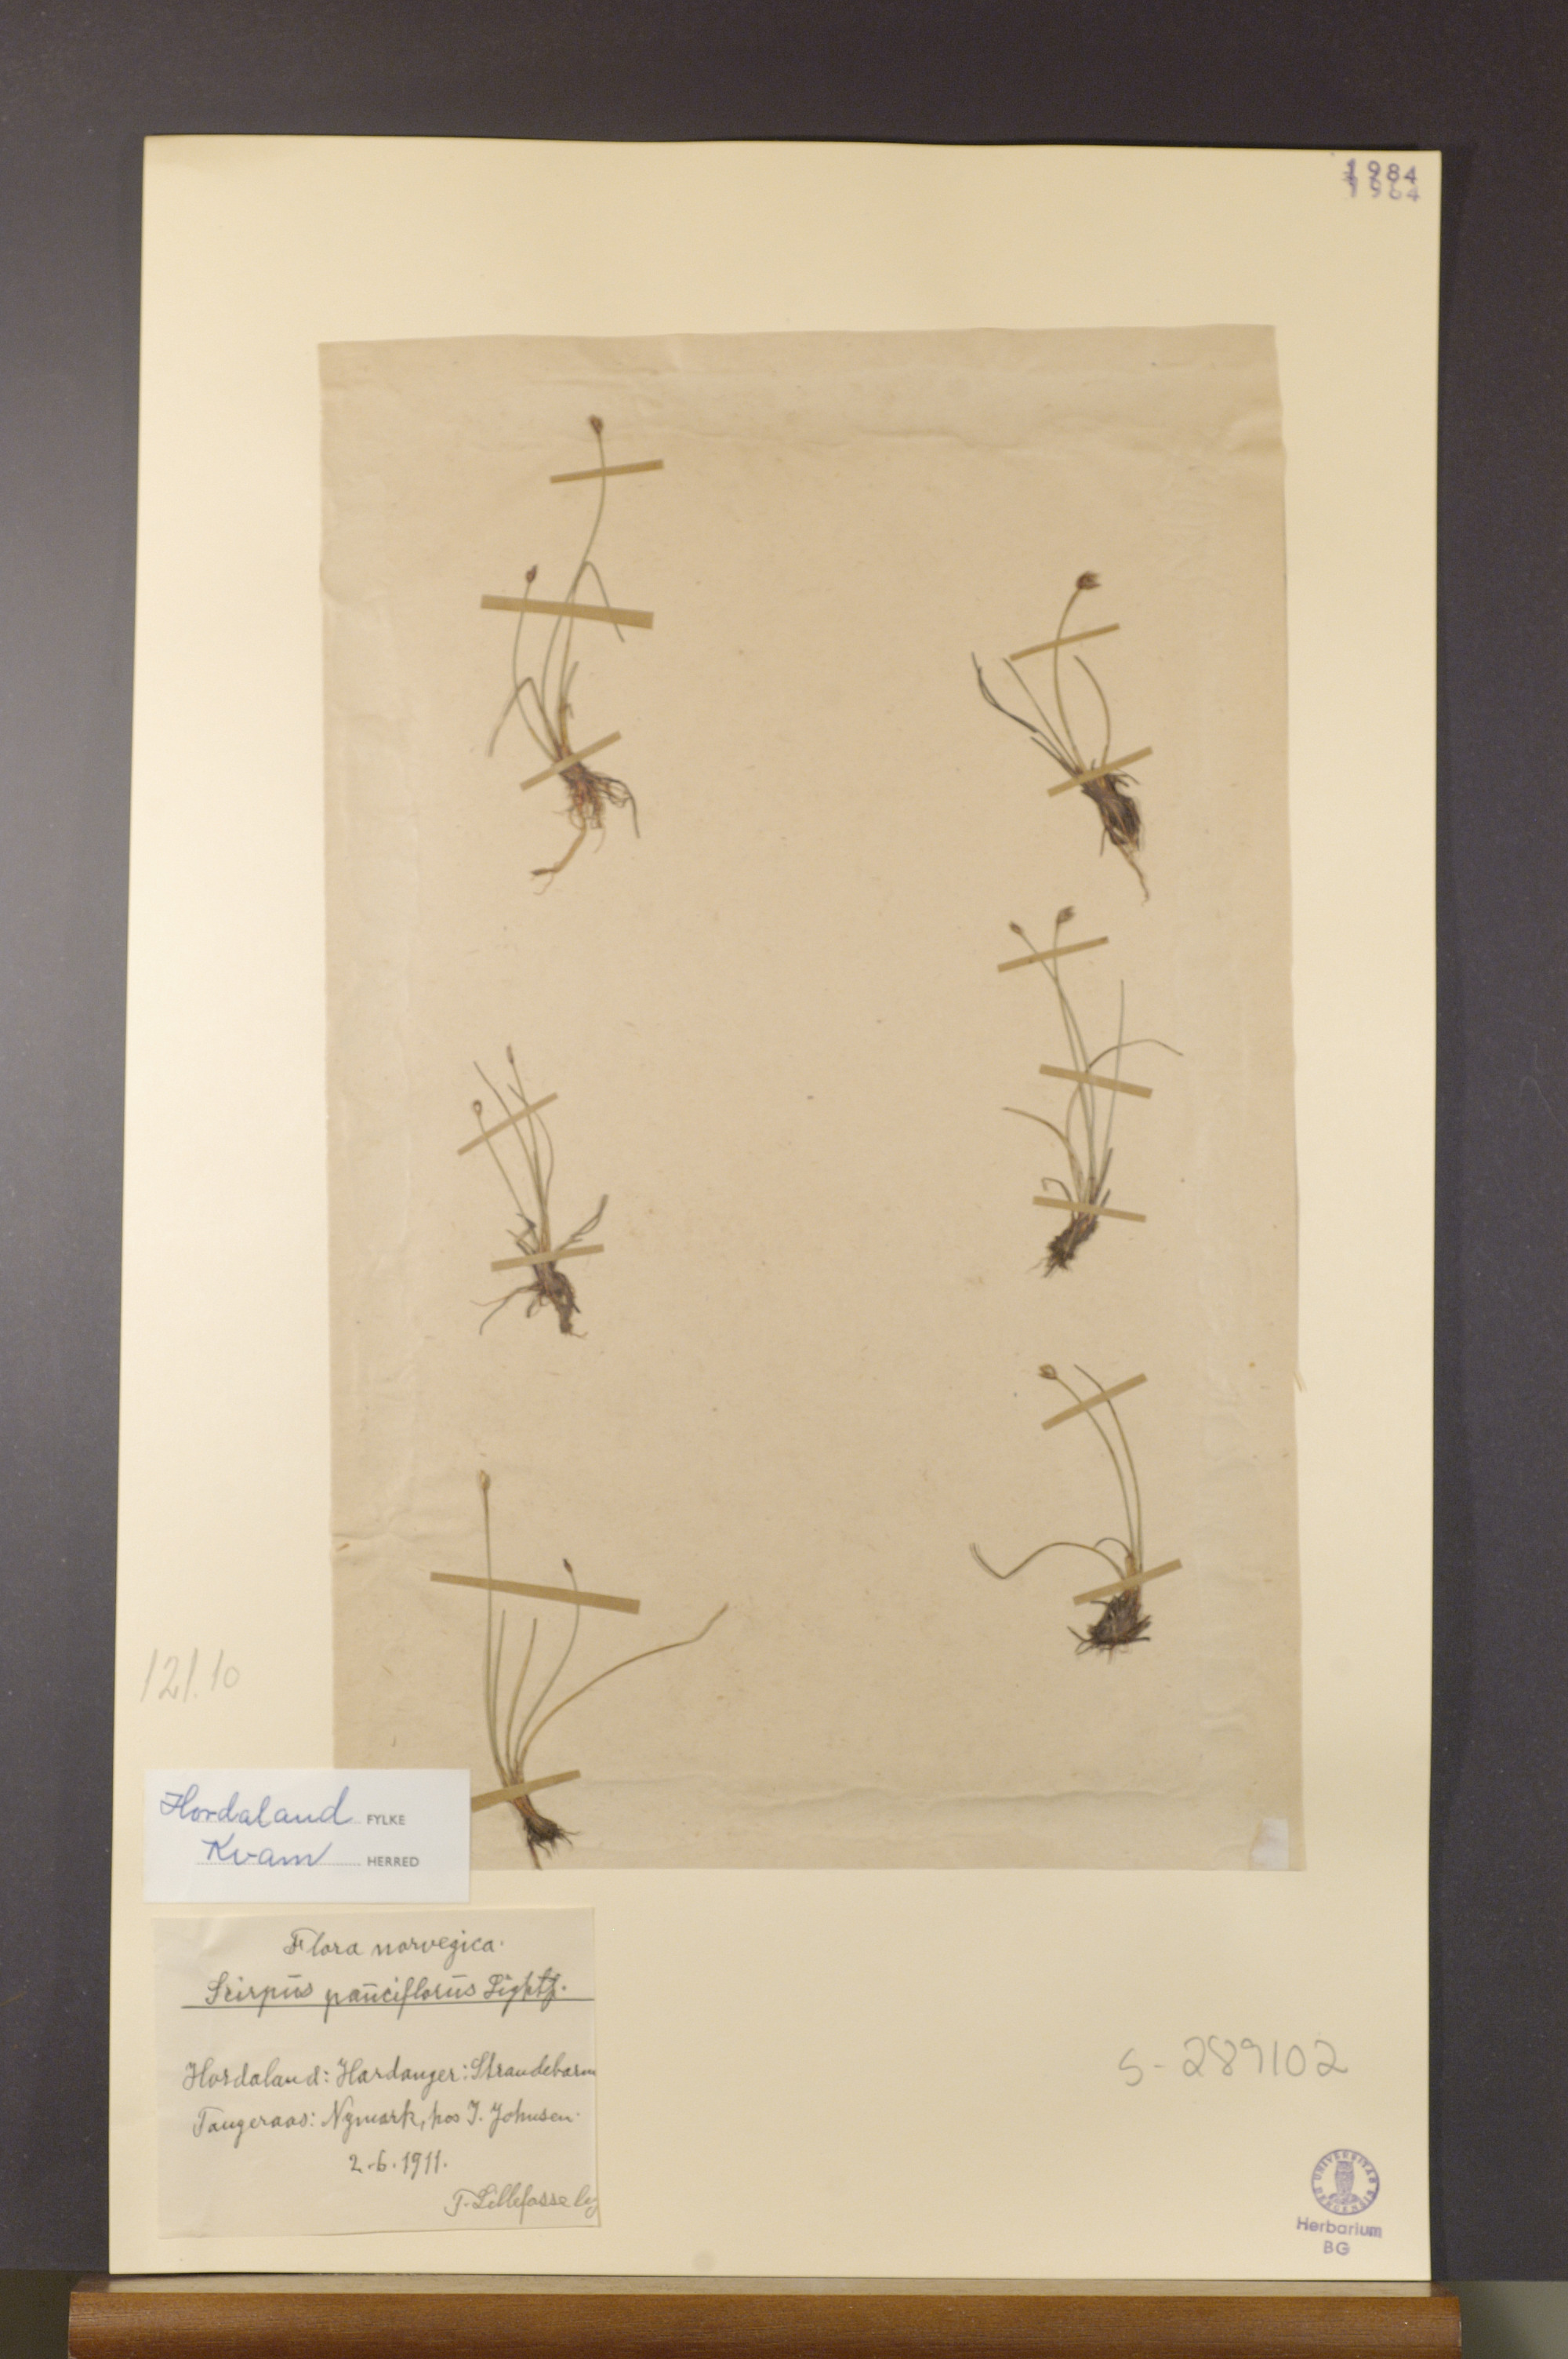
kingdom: Plantae
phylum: Tracheophyta
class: Liliopsida
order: Poales
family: Cyperaceae
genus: Eleocharis
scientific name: Eleocharis quinqueflora
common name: Few-flowered spike-rush
